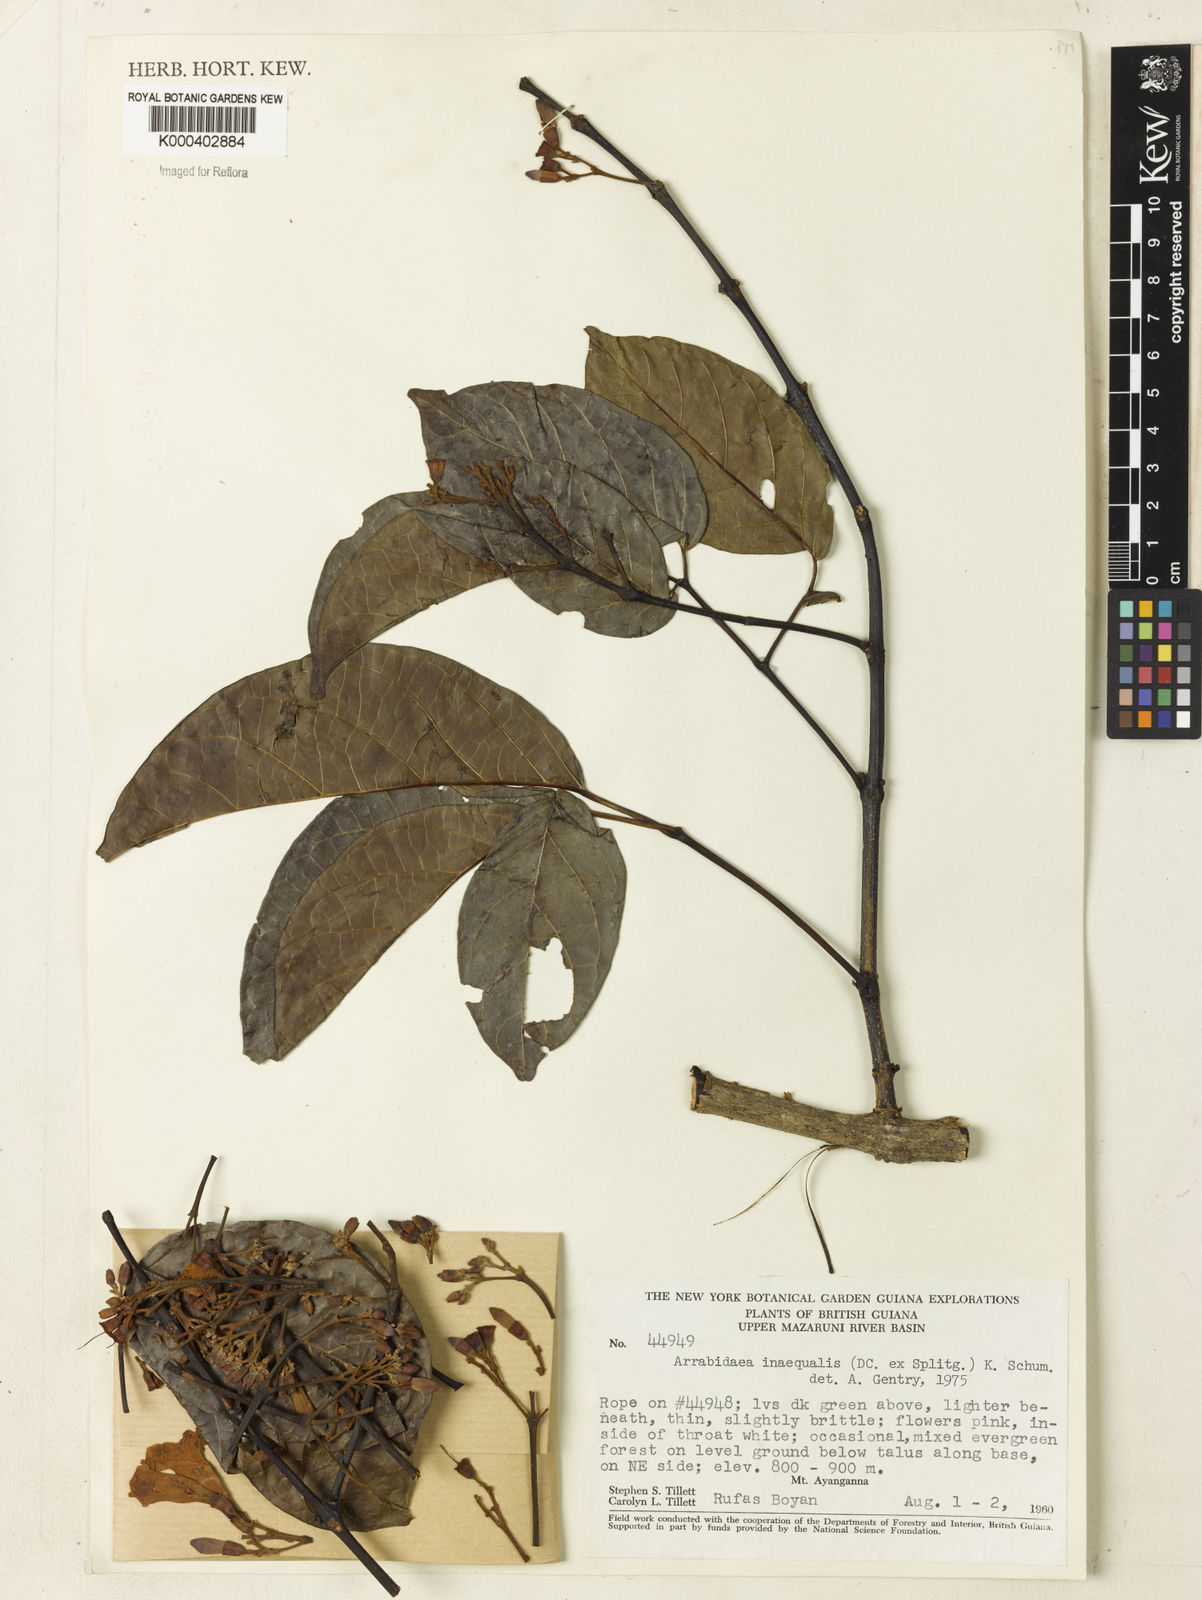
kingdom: Plantae
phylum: Tracheophyta
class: Magnoliopsida
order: Lamiales
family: Bignoniaceae
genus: Cuspidaria
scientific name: Cuspidaria inaequalis
